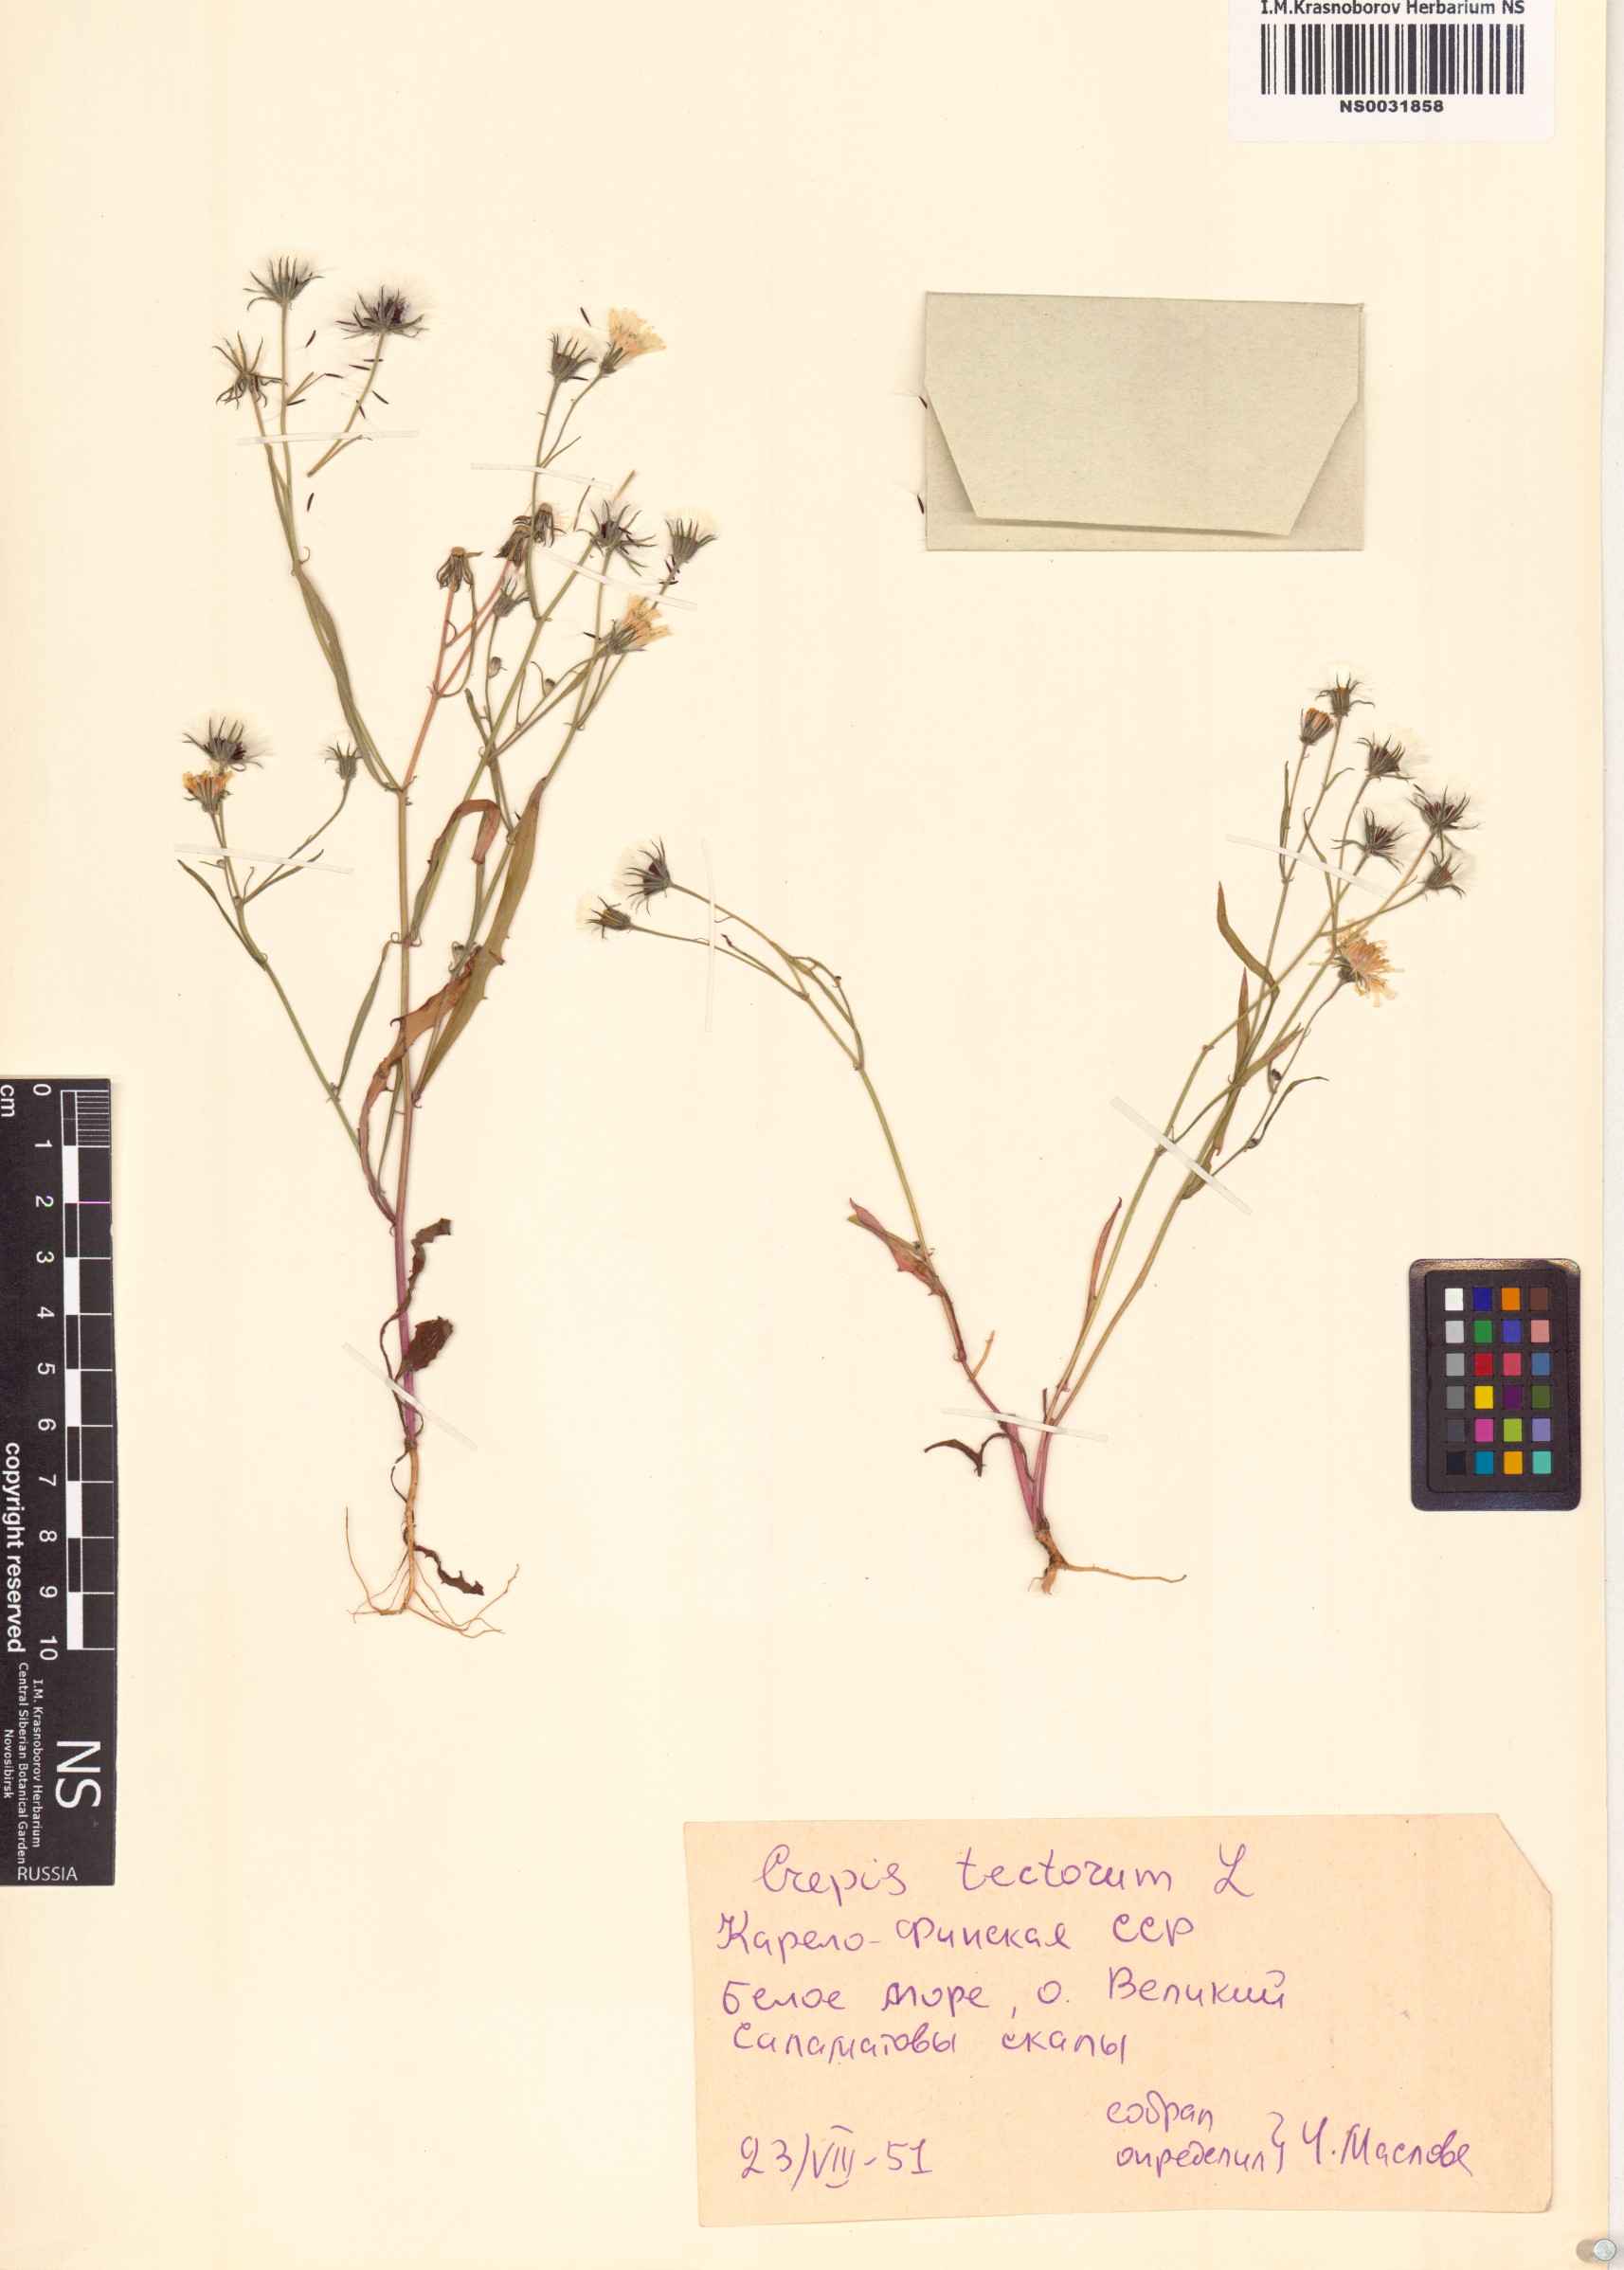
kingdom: Plantae
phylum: Tracheophyta
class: Magnoliopsida
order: Asterales
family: Asteraceae
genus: Crepis
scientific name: Crepis tectorum
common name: Narrow-leaved hawk's-beard
